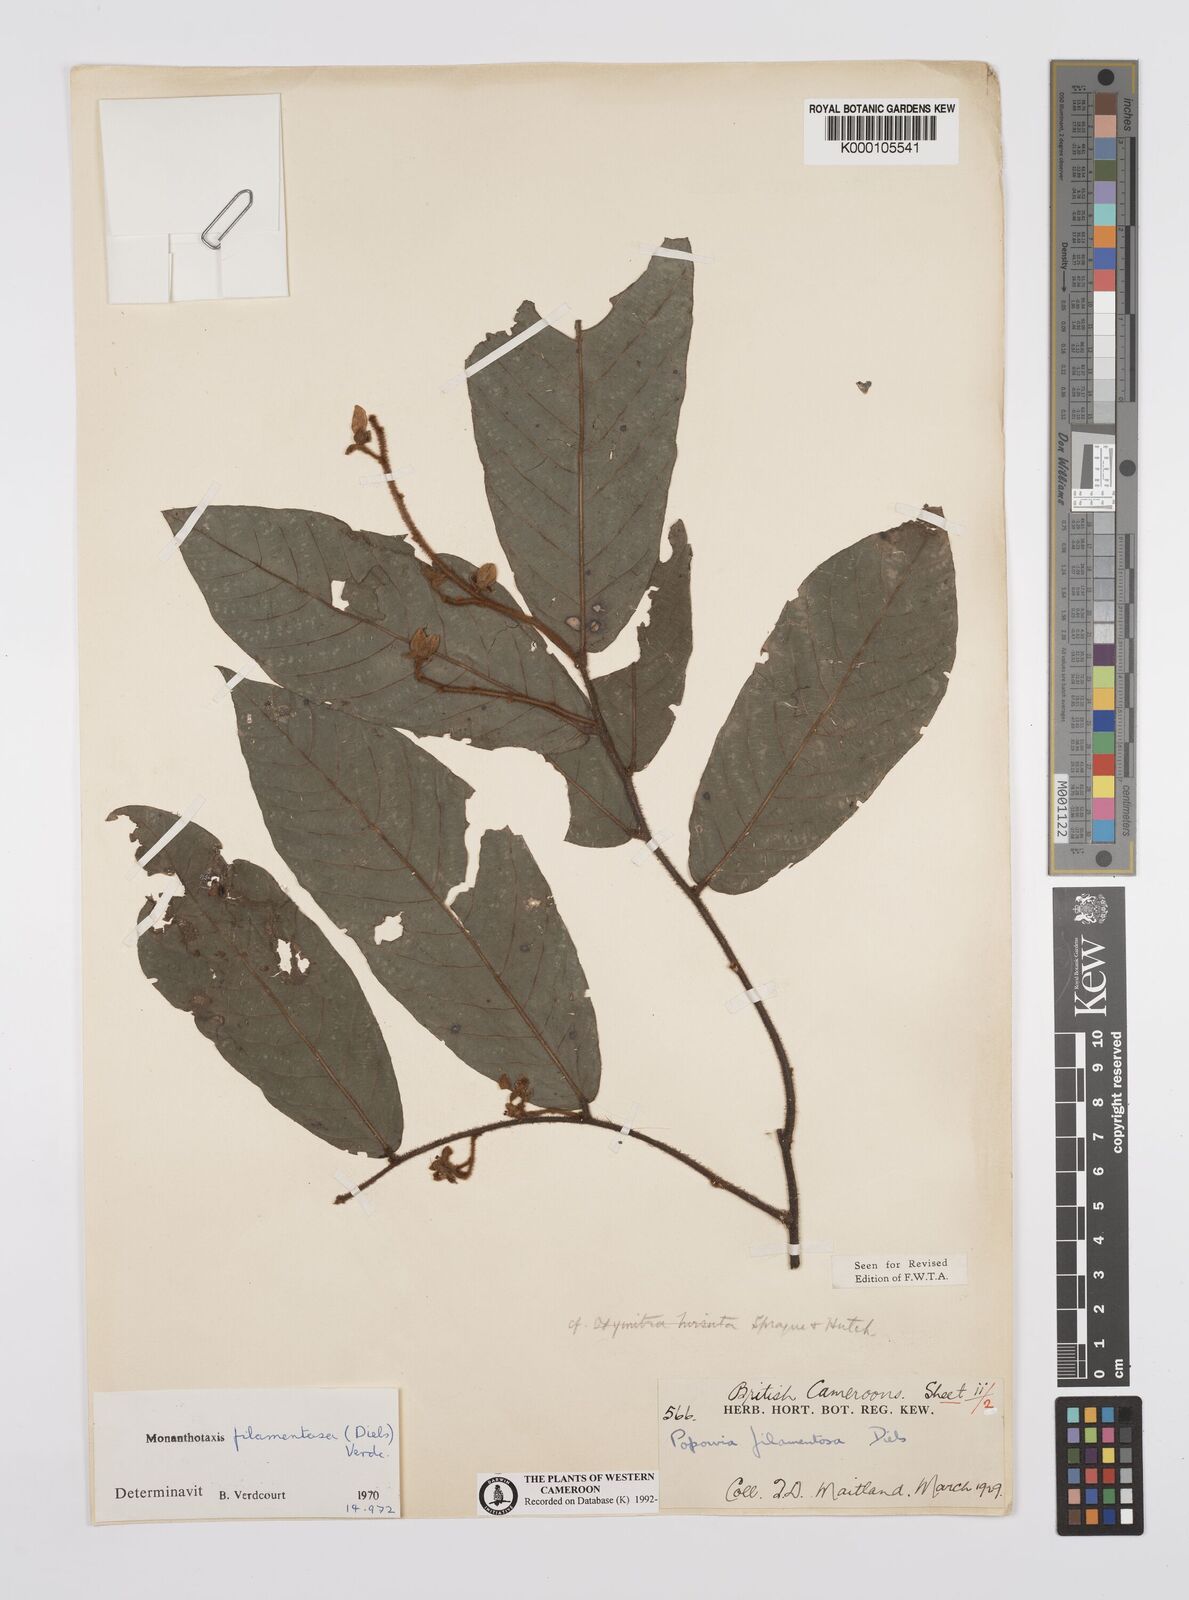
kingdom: Plantae
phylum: Tracheophyta
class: Magnoliopsida
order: Magnoliales
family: Annonaceae
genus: Monanthotaxis
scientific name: Monanthotaxis filamentosa
